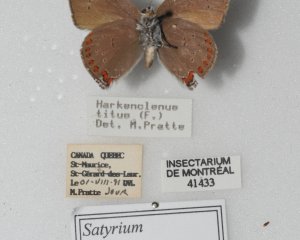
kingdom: Animalia
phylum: Arthropoda
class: Insecta
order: Lepidoptera
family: Lycaenidae
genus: Harkenclenus
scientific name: Harkenclenus titus
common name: Coral Hairstreak
